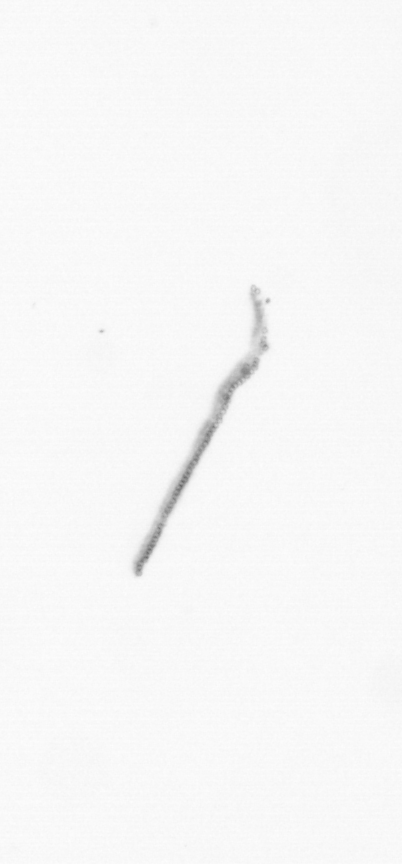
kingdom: Chromista
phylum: Ochrophyta
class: Bacillariophyceae
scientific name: Bacillariophyceae
